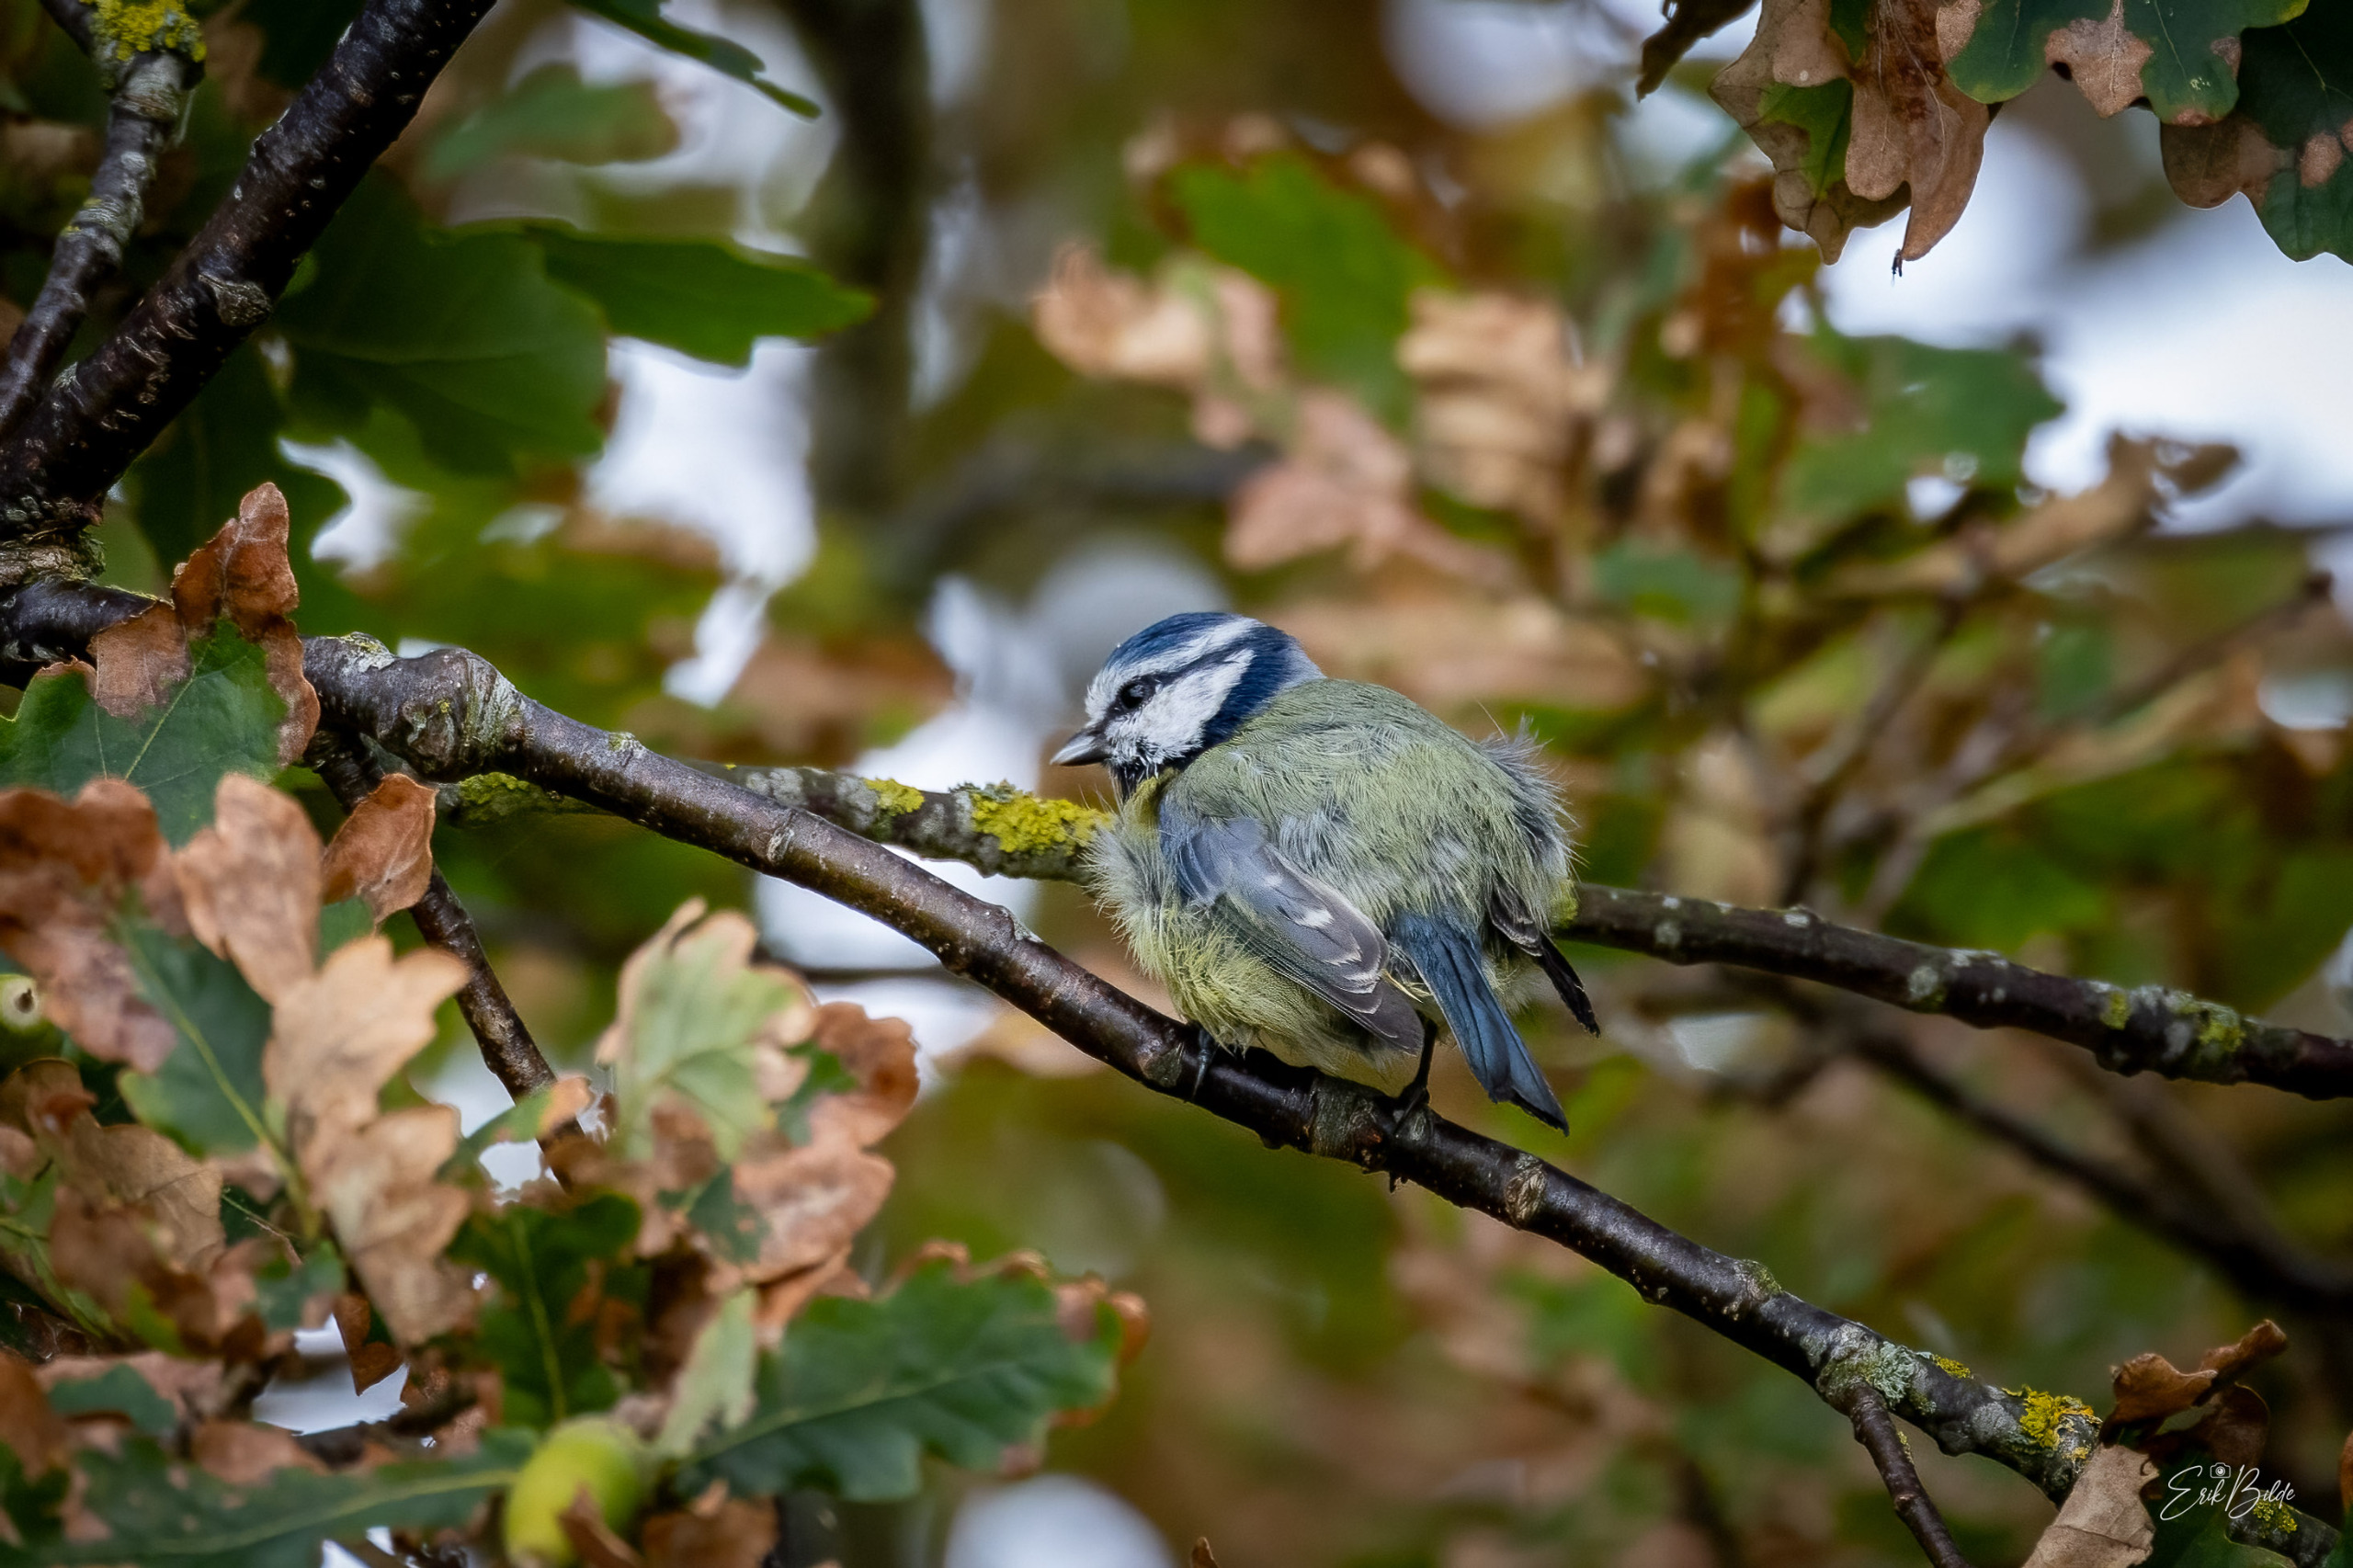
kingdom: Animalia
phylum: Chordata
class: Aves
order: Passeriformes
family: Paridae
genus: Cyanistes
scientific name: Cyanistes caeruleus
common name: Blåmejse
